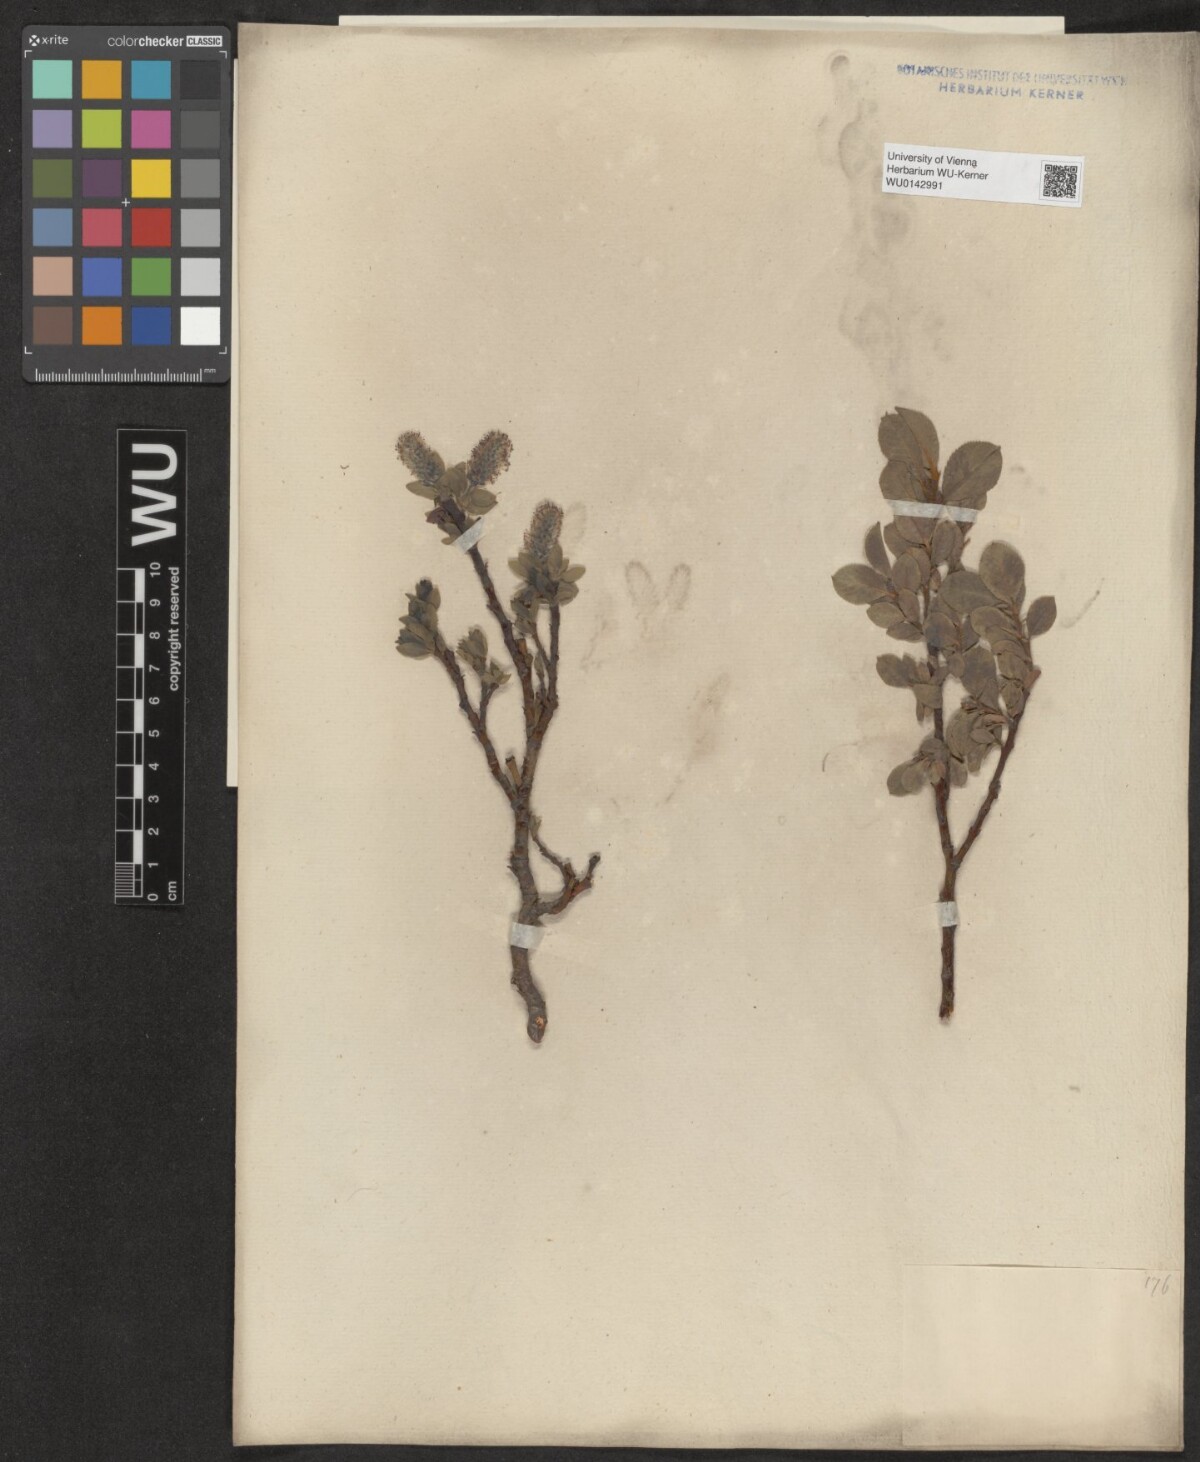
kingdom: Plantae
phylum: Tracheophyta
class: Magnoliopsida
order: Malpighiales
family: Salicaceae
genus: Salix
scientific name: Salix myrsinites
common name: Myrtle willow
